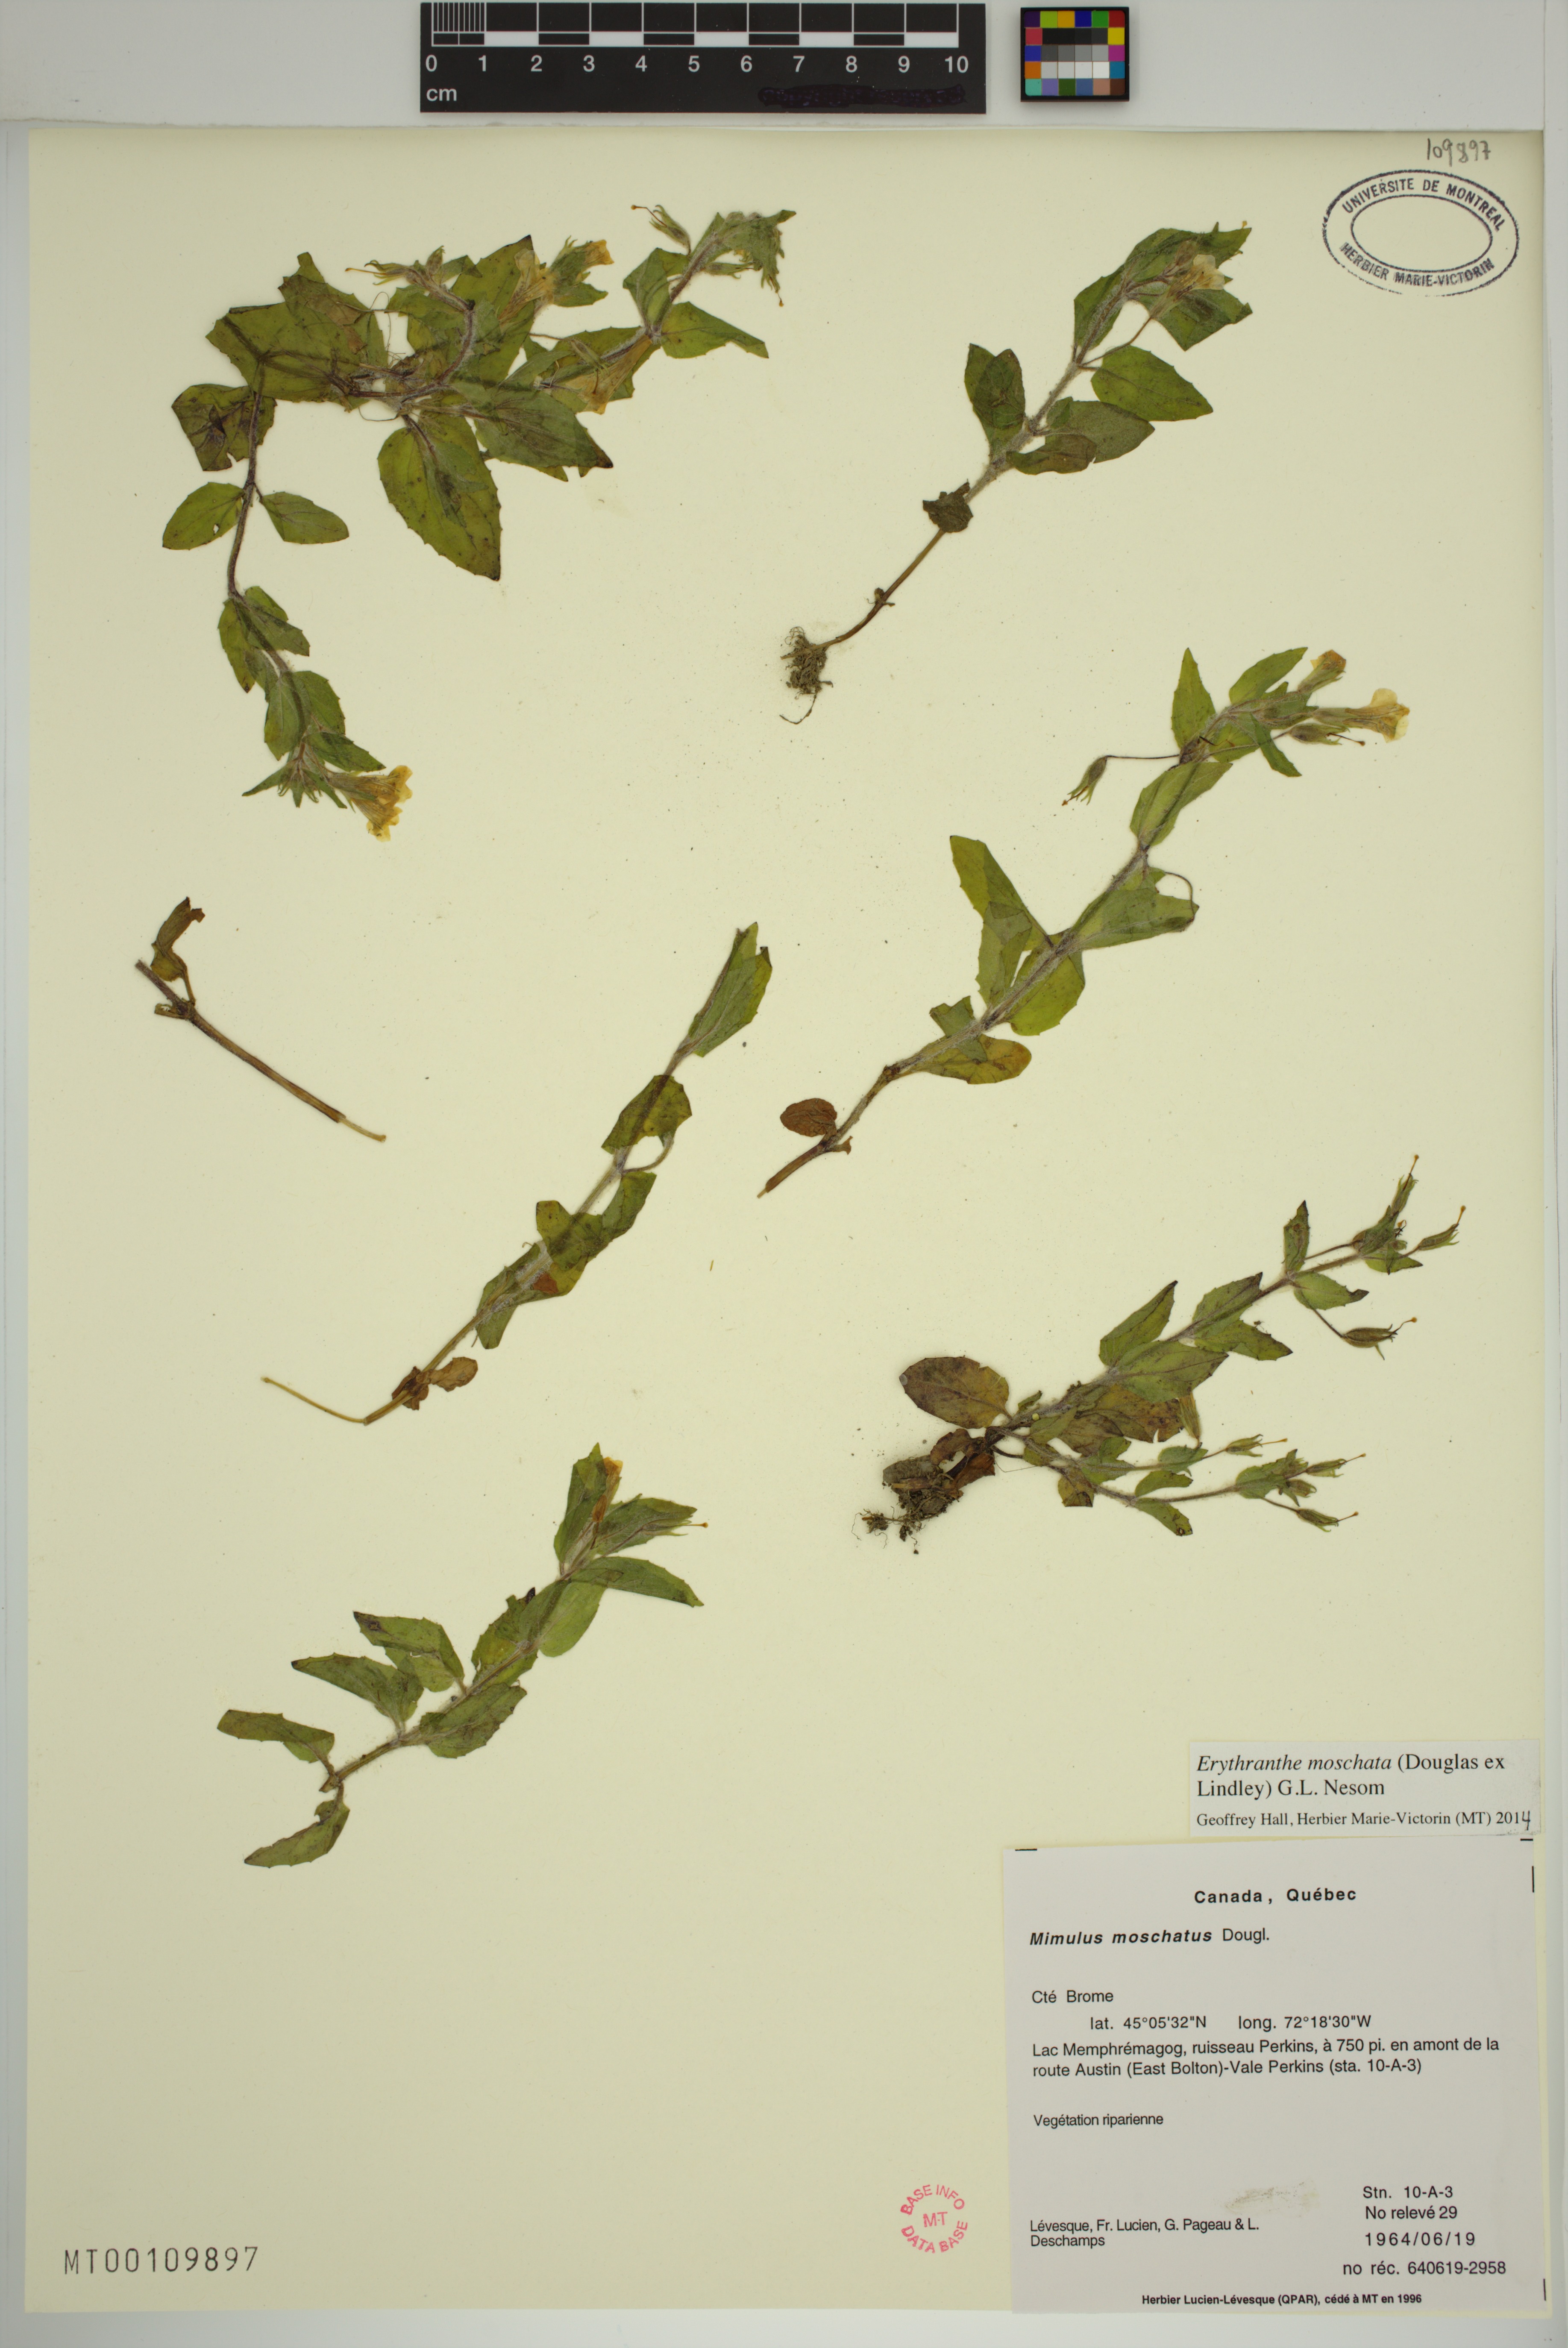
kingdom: Plantae
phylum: Tracheophyta
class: Magnoliopsida
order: Lamiales
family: Phrymaceae
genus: Erythranthe
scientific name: Erythranthe moschata
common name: Muskflower
